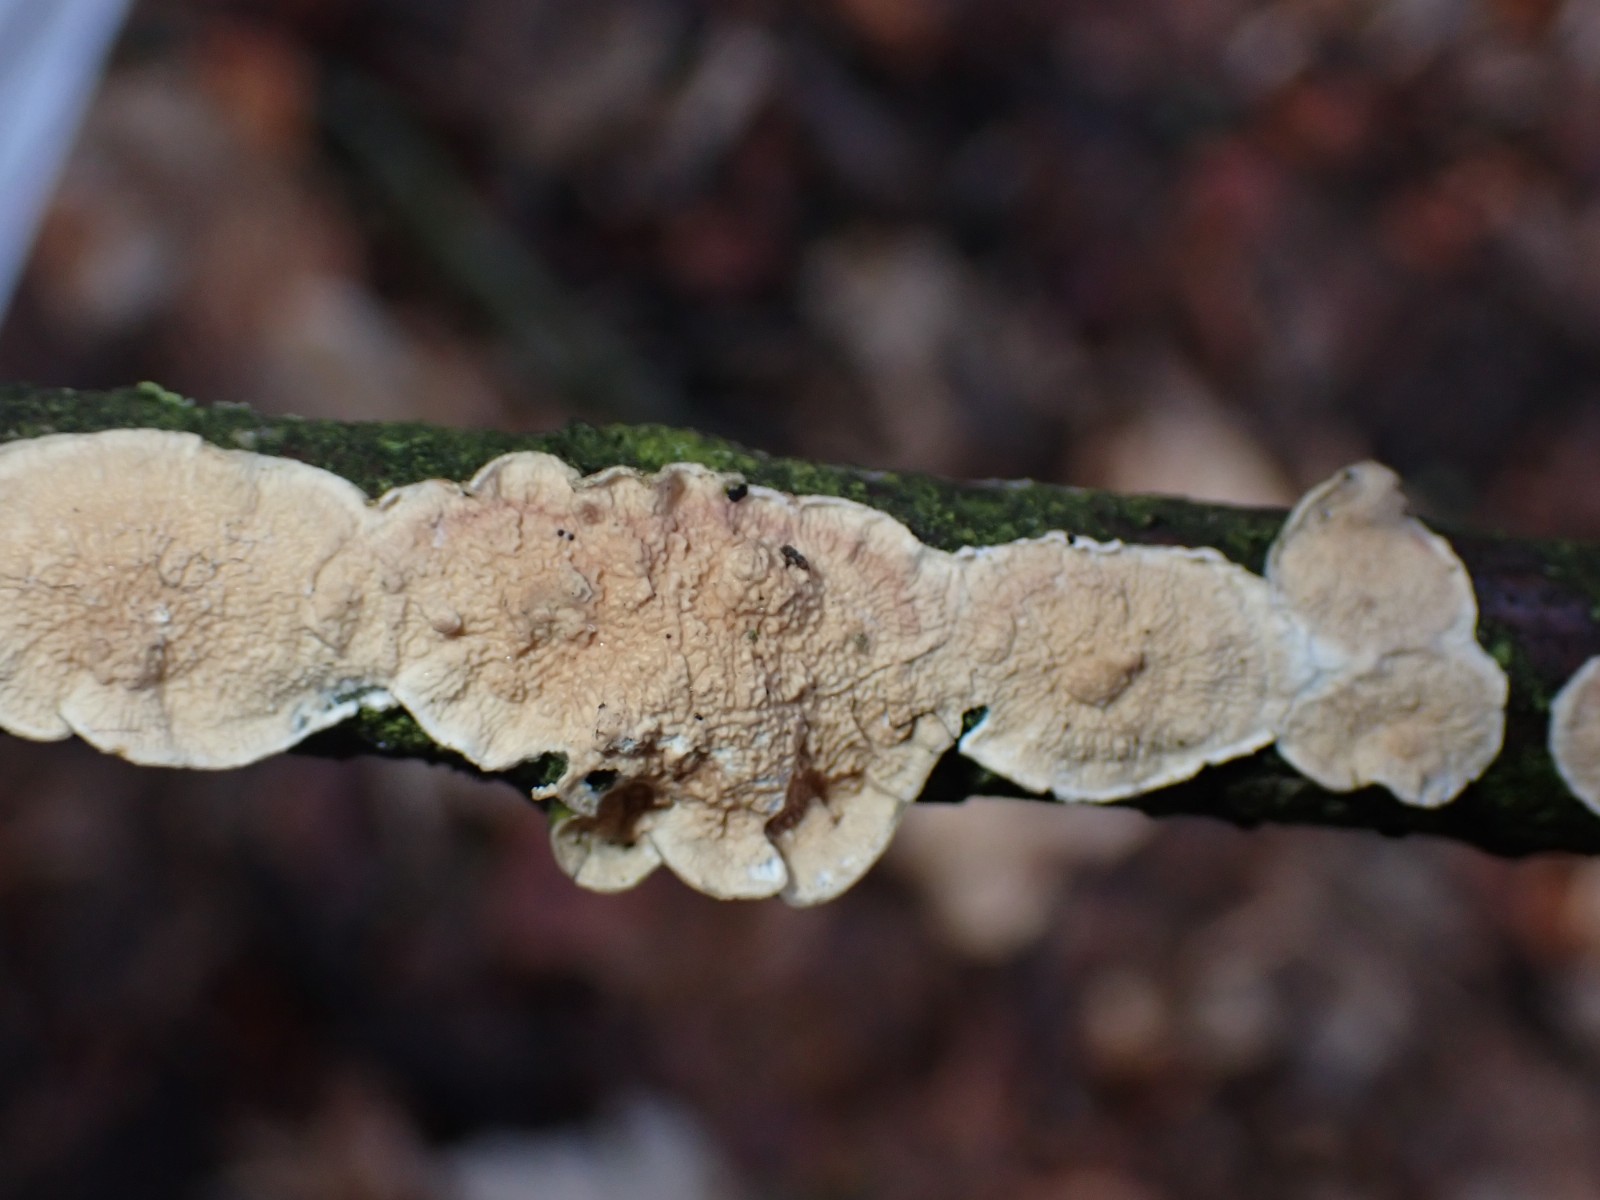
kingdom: Fungi
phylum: Basidiomycota
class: Agaricomycetes
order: Polyporales
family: Irpicaceae
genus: Byssomerulius
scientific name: Byssomerulius corium
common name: læder-åresvamp
